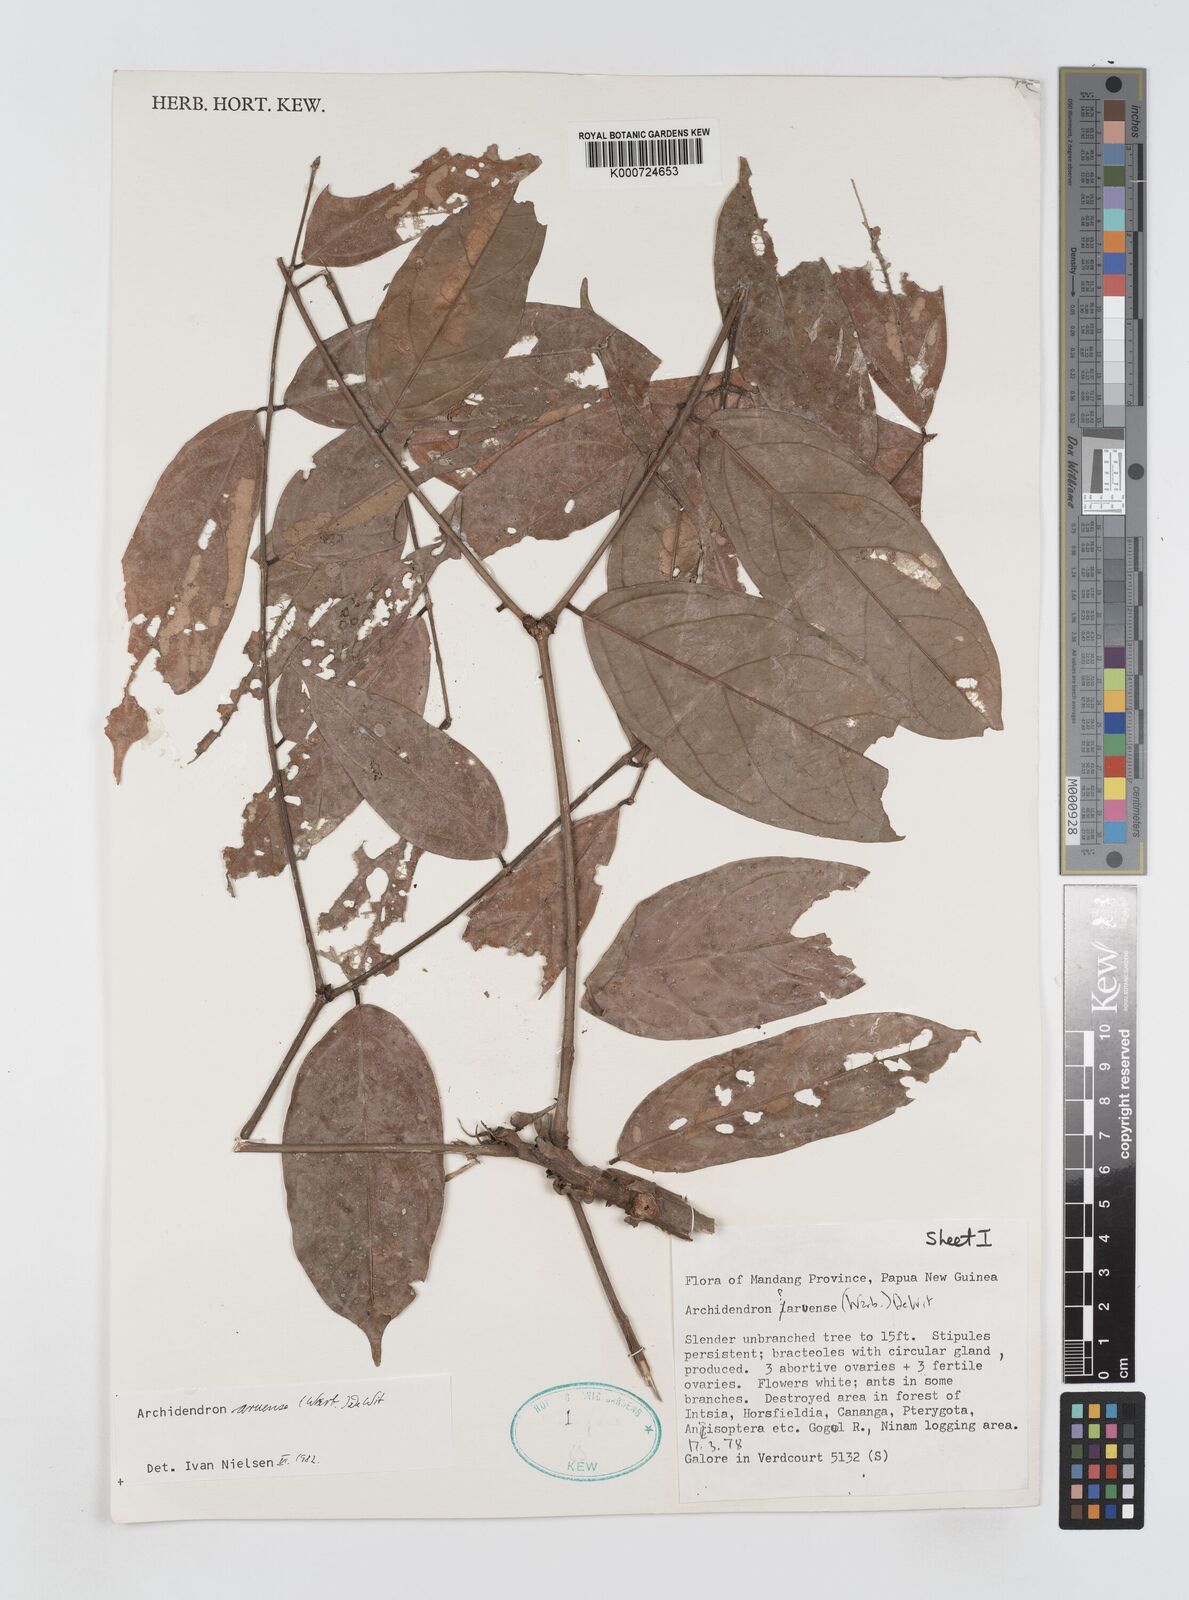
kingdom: Plantae
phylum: Tracheophyta
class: Magnoliopsida
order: Fabales
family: Fabaceae
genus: Archidendron
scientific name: Archidendron aruense
